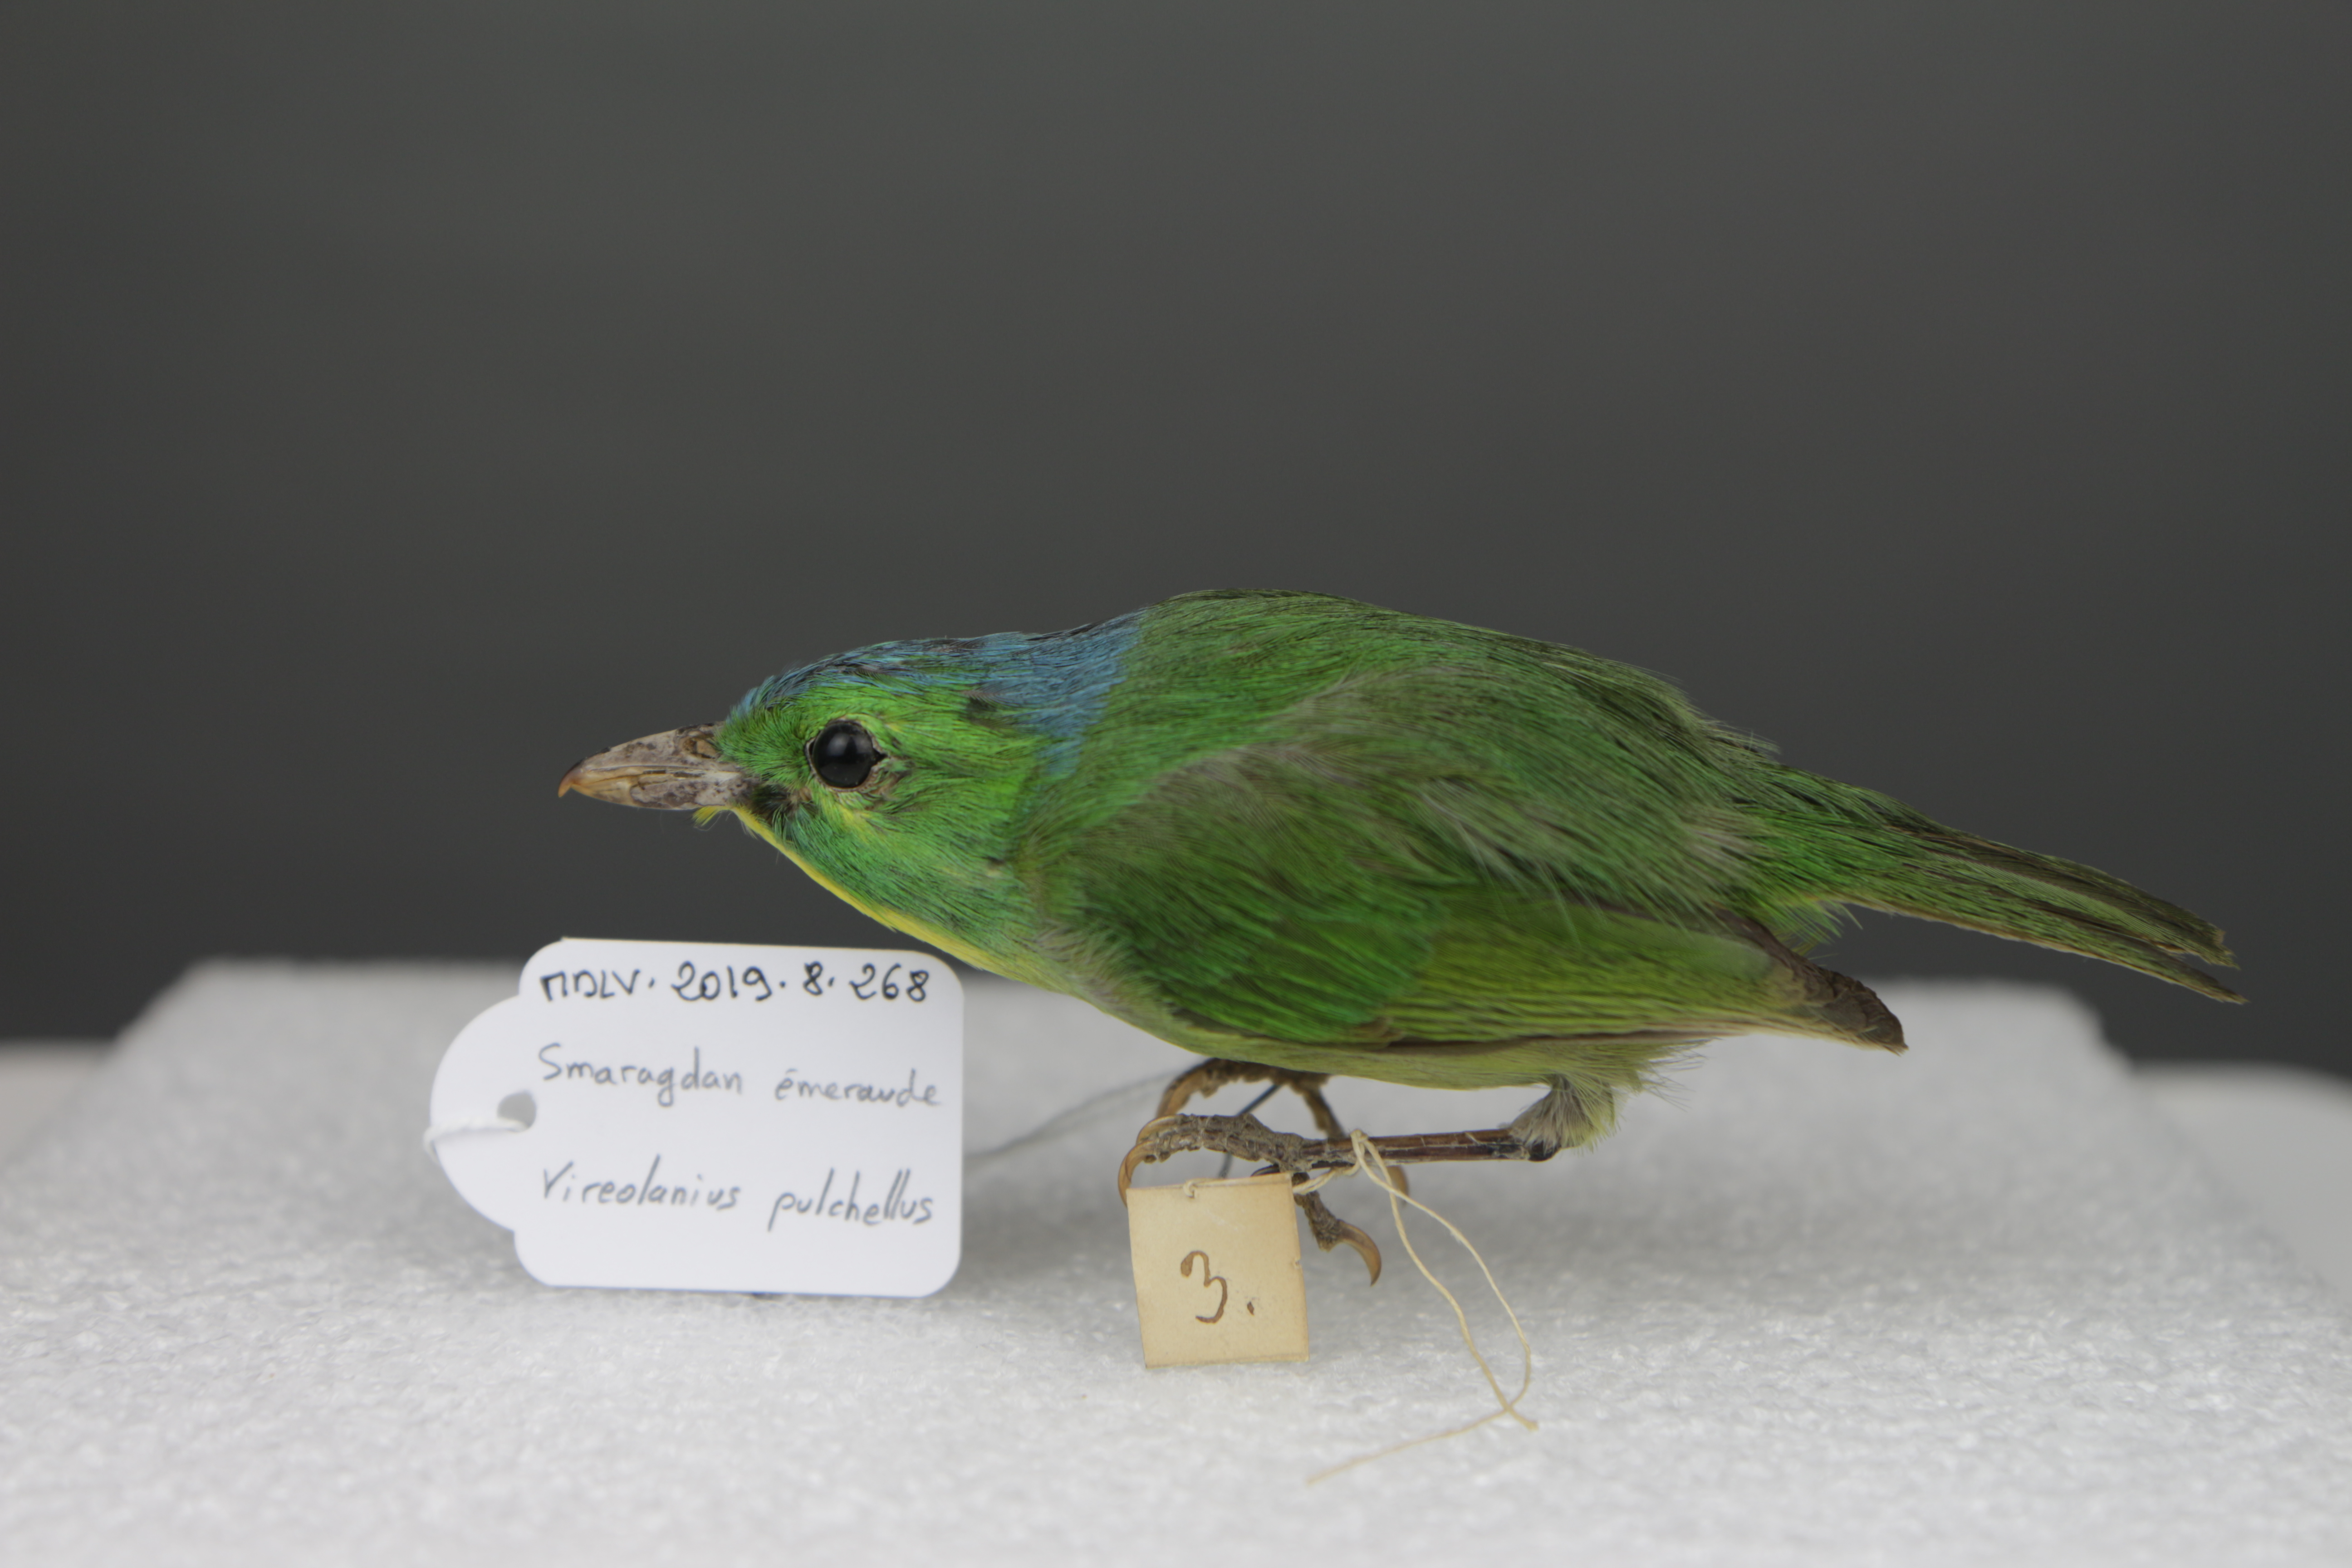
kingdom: Animalia
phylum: Chordata
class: Aves
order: Passeriformes
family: Vireonidae
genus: Vireolanius
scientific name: Vireolanius pulchellus
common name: Green shrike-vireo
